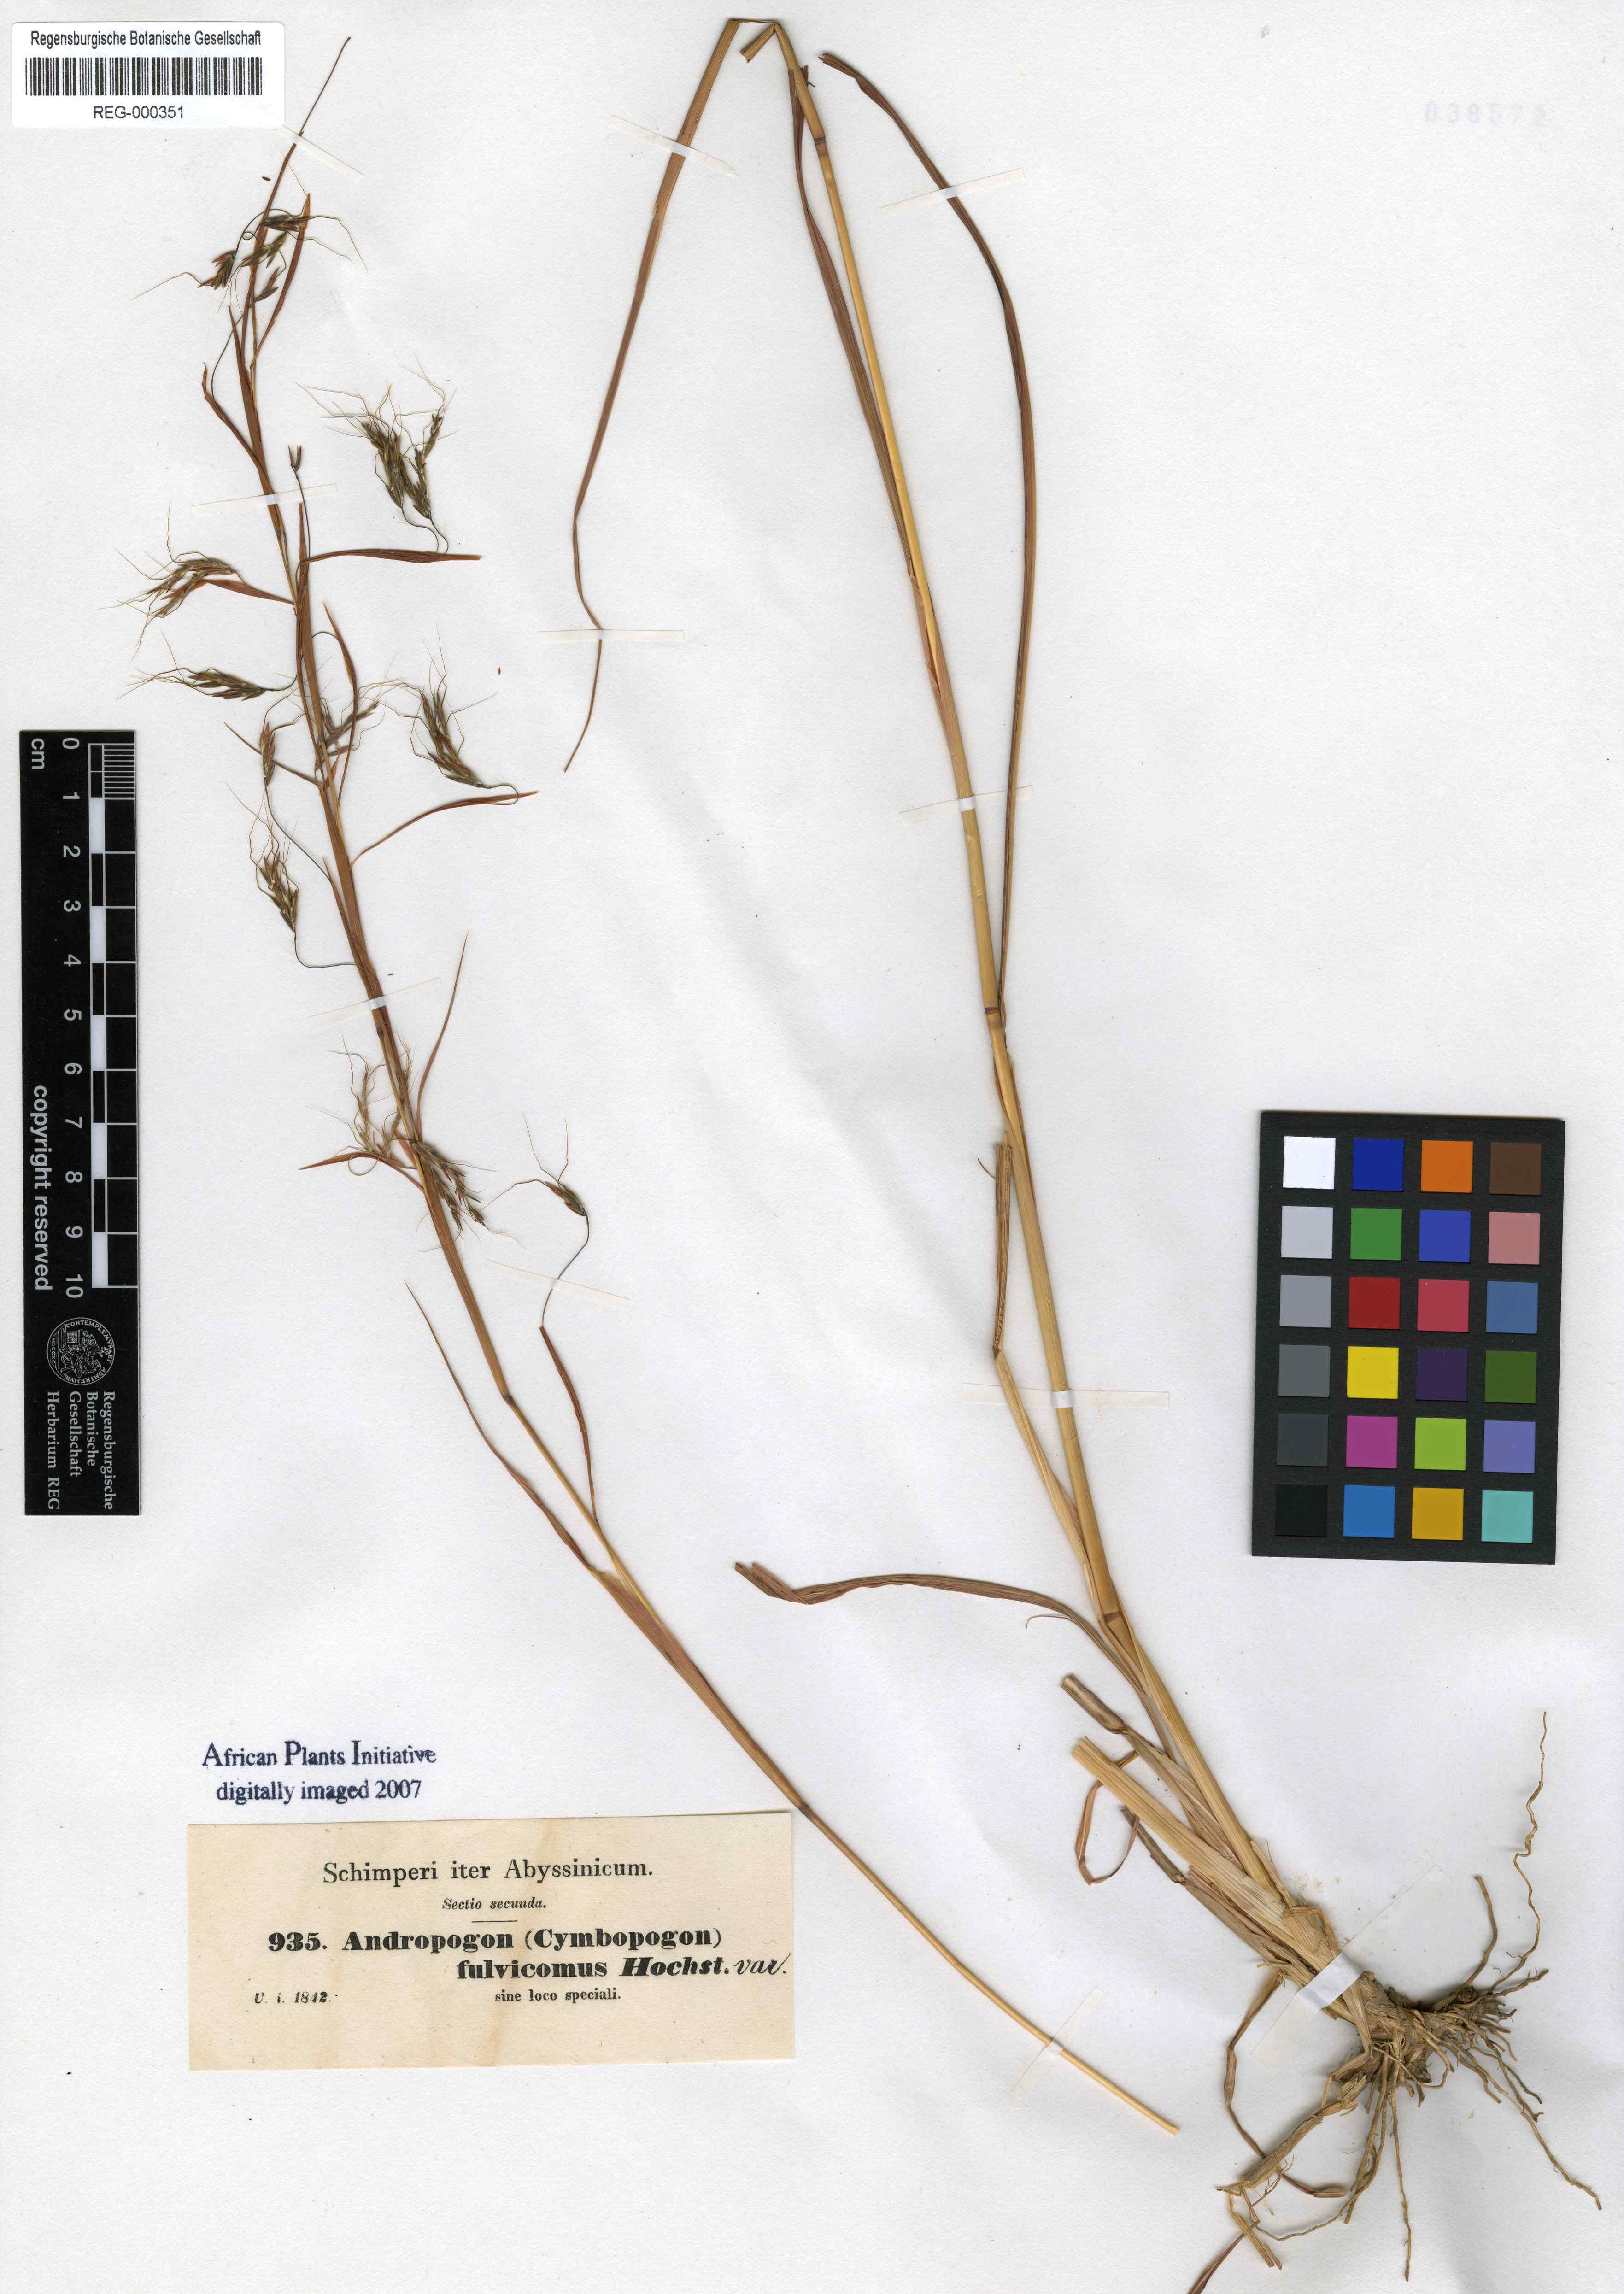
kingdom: Plantae
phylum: Tracheophyta
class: Liliopsida
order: Poales
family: Poaceae
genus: Hyparrhenia
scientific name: Hyparrhenia rufa
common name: Jaraguagrass
